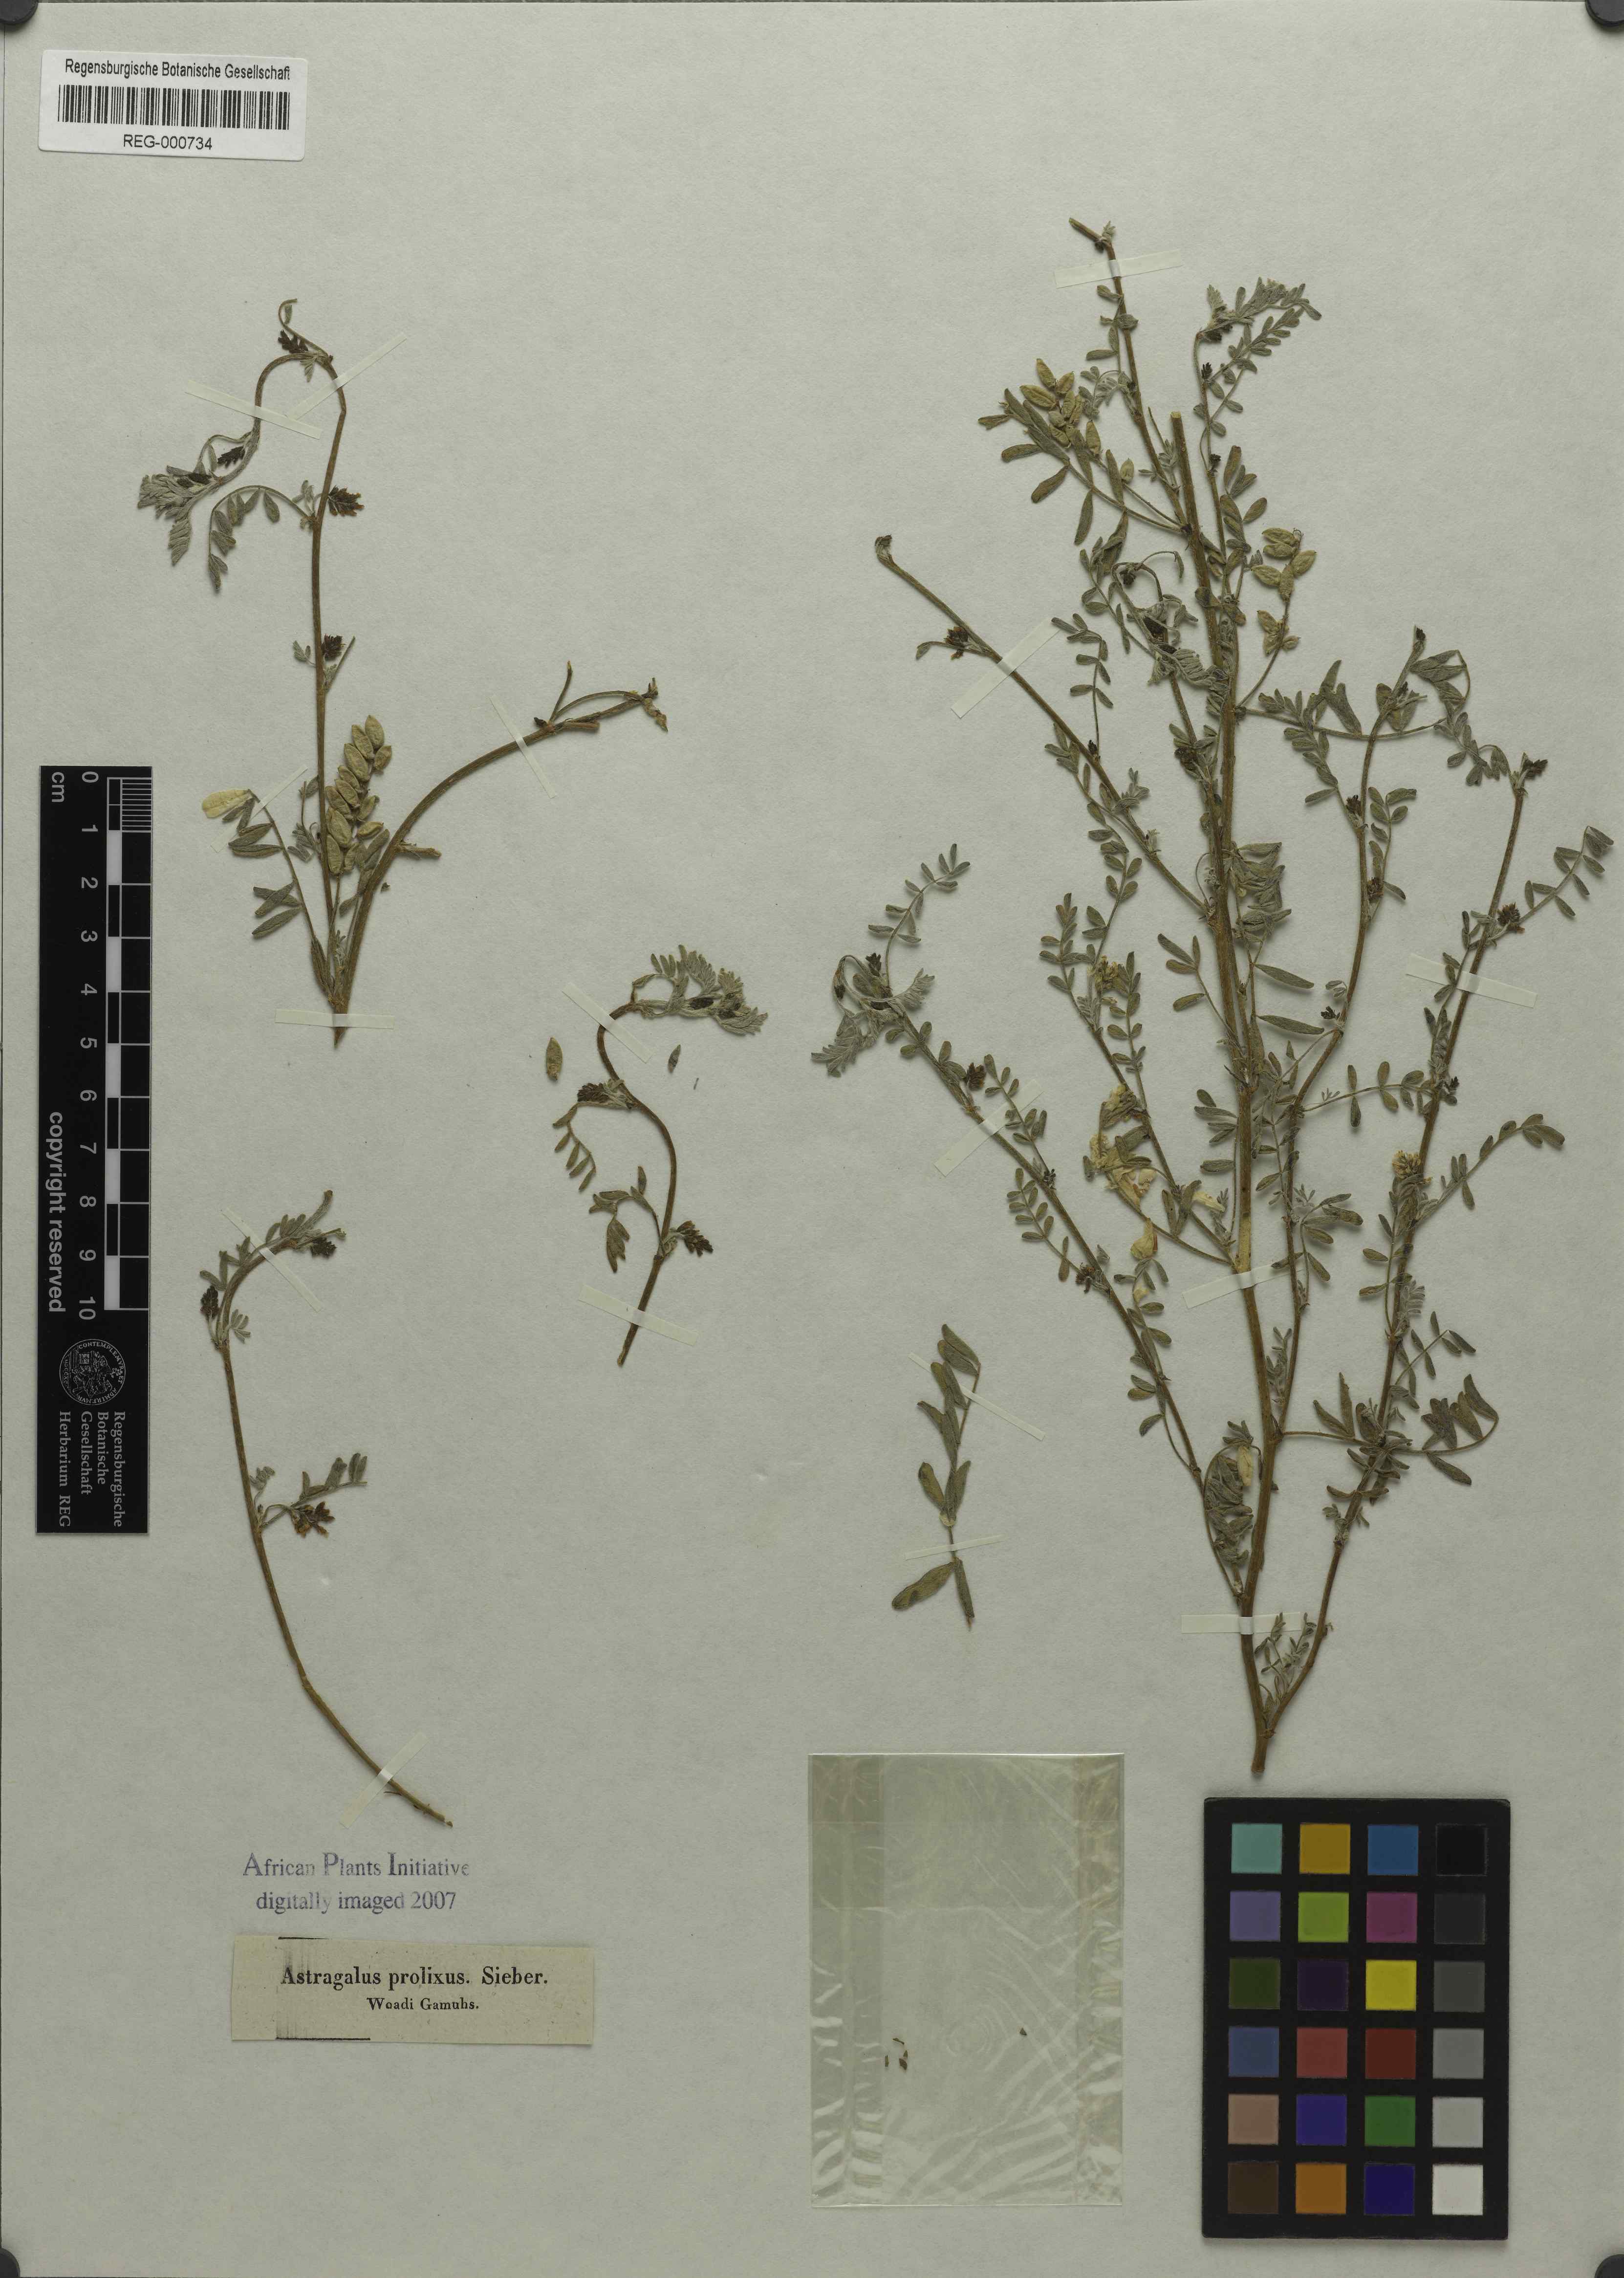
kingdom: Plantae
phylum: Tracheophyta
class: Magnoliopsida
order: Fabales
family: Fabaceae
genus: Astragalus
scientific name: Astragalus vogelii
